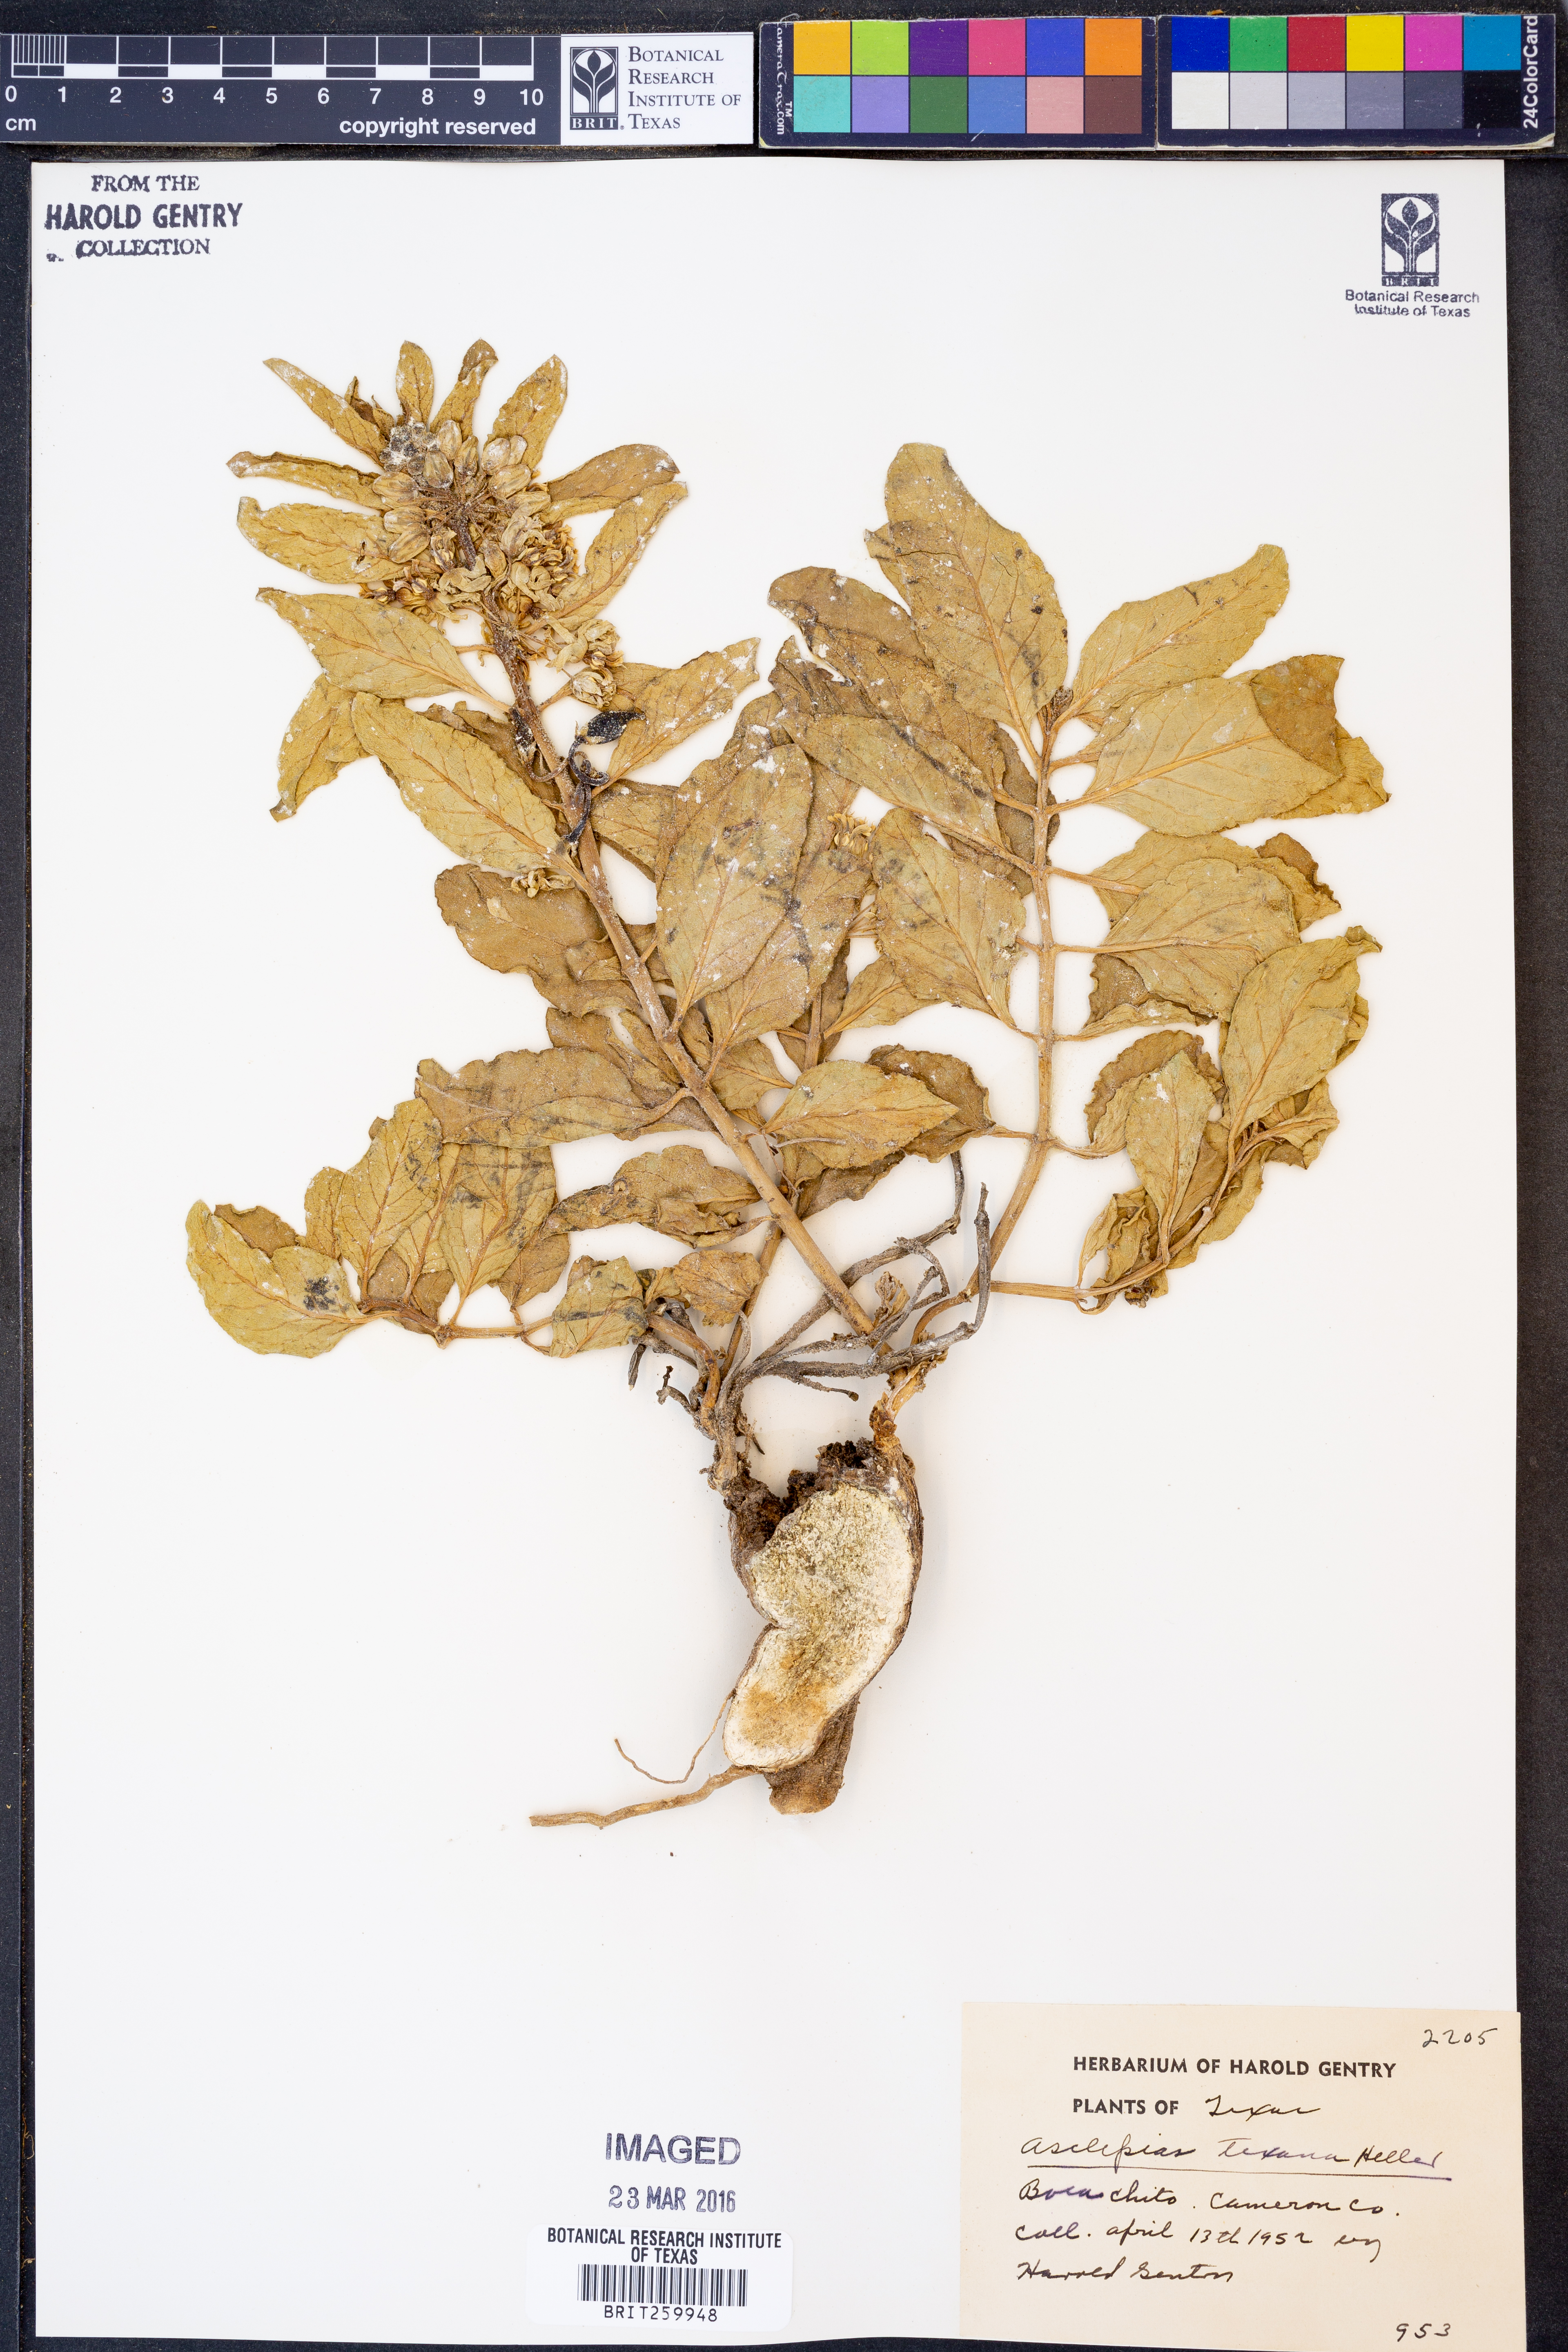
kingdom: Plantae
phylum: Tracheophyta
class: Magnoliopsida
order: Gentianales
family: Apocynaceae
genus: Asclepias
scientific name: Asclepias oenotheroides
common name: Zizotes milkweed
